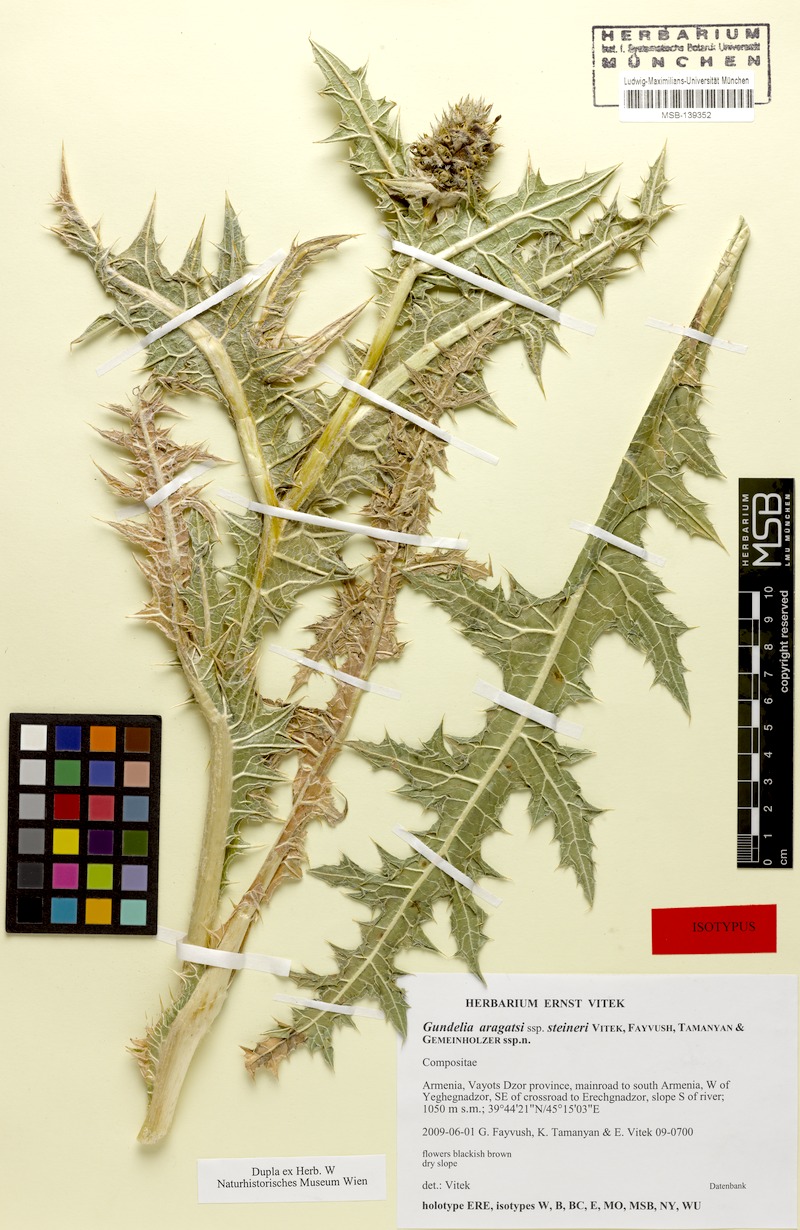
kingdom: Plantae
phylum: Tracheophyta
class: Magnoliopsida
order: Asterales
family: Asteraceae
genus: Gundelia
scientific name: Gundelia aragatsi
